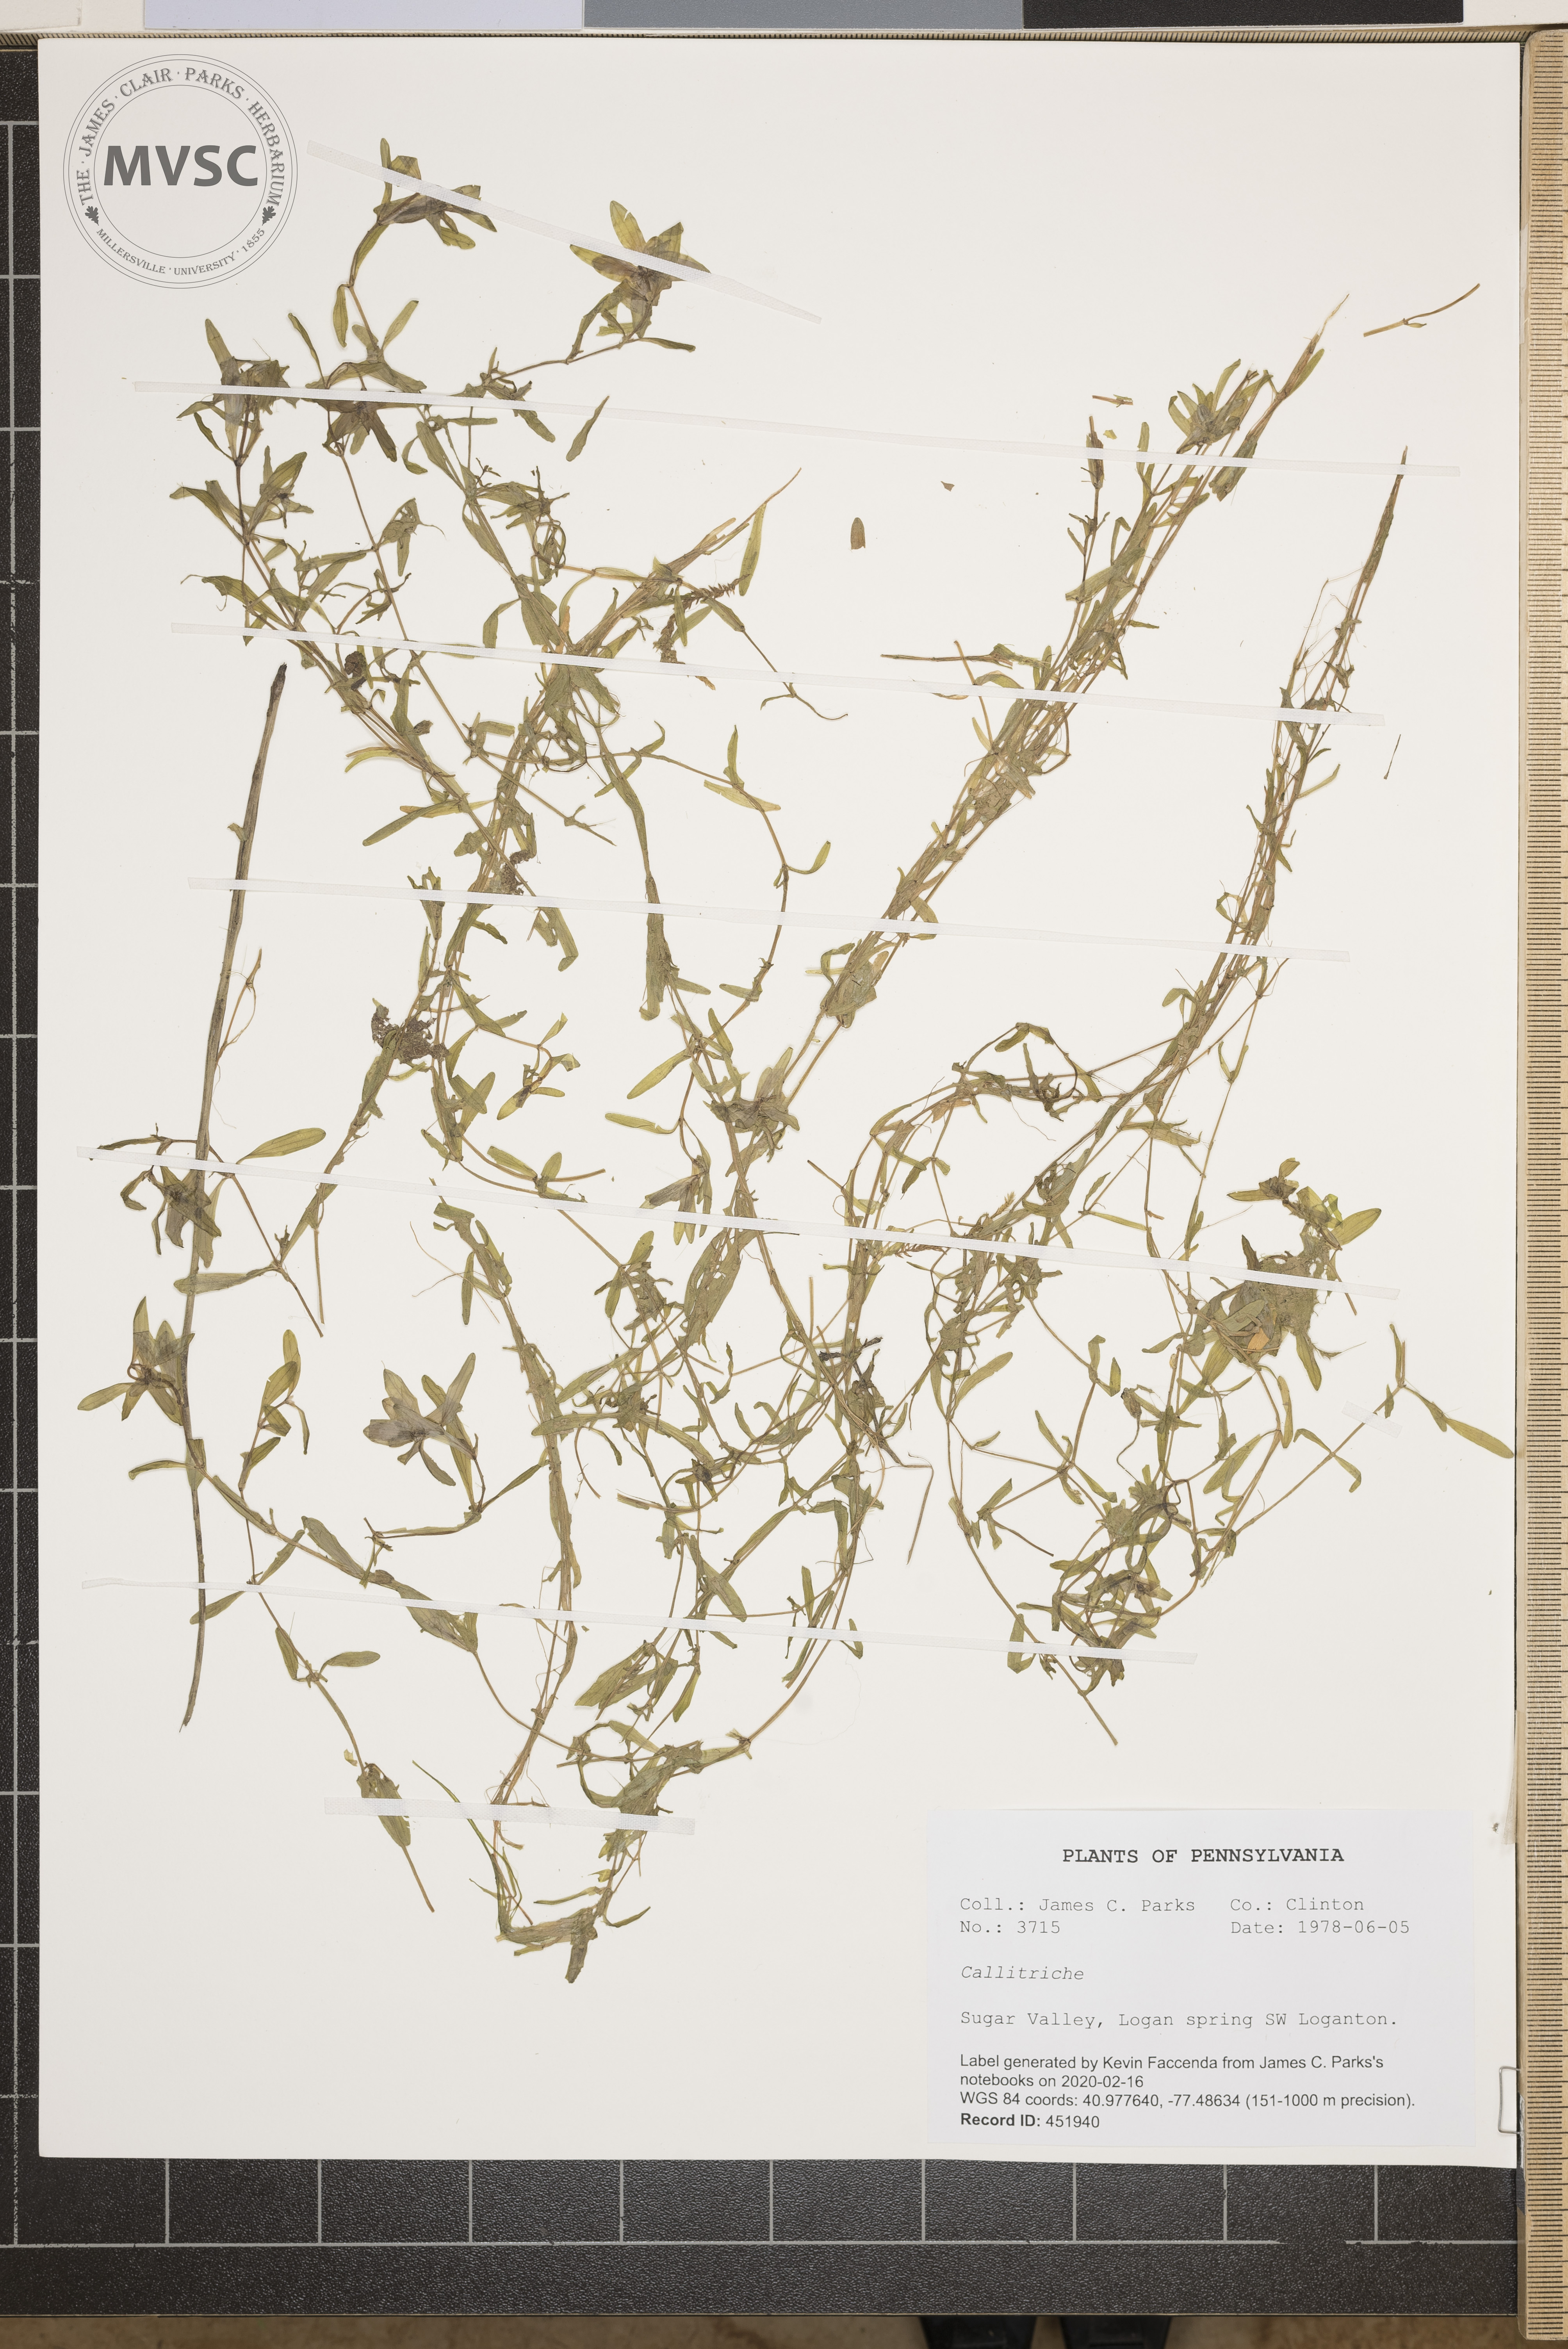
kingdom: Plantae
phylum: Tracheophyta
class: Magnoliopsida
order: Lamiales
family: Plantaginaceae
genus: Callitriche
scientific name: Callitriche
